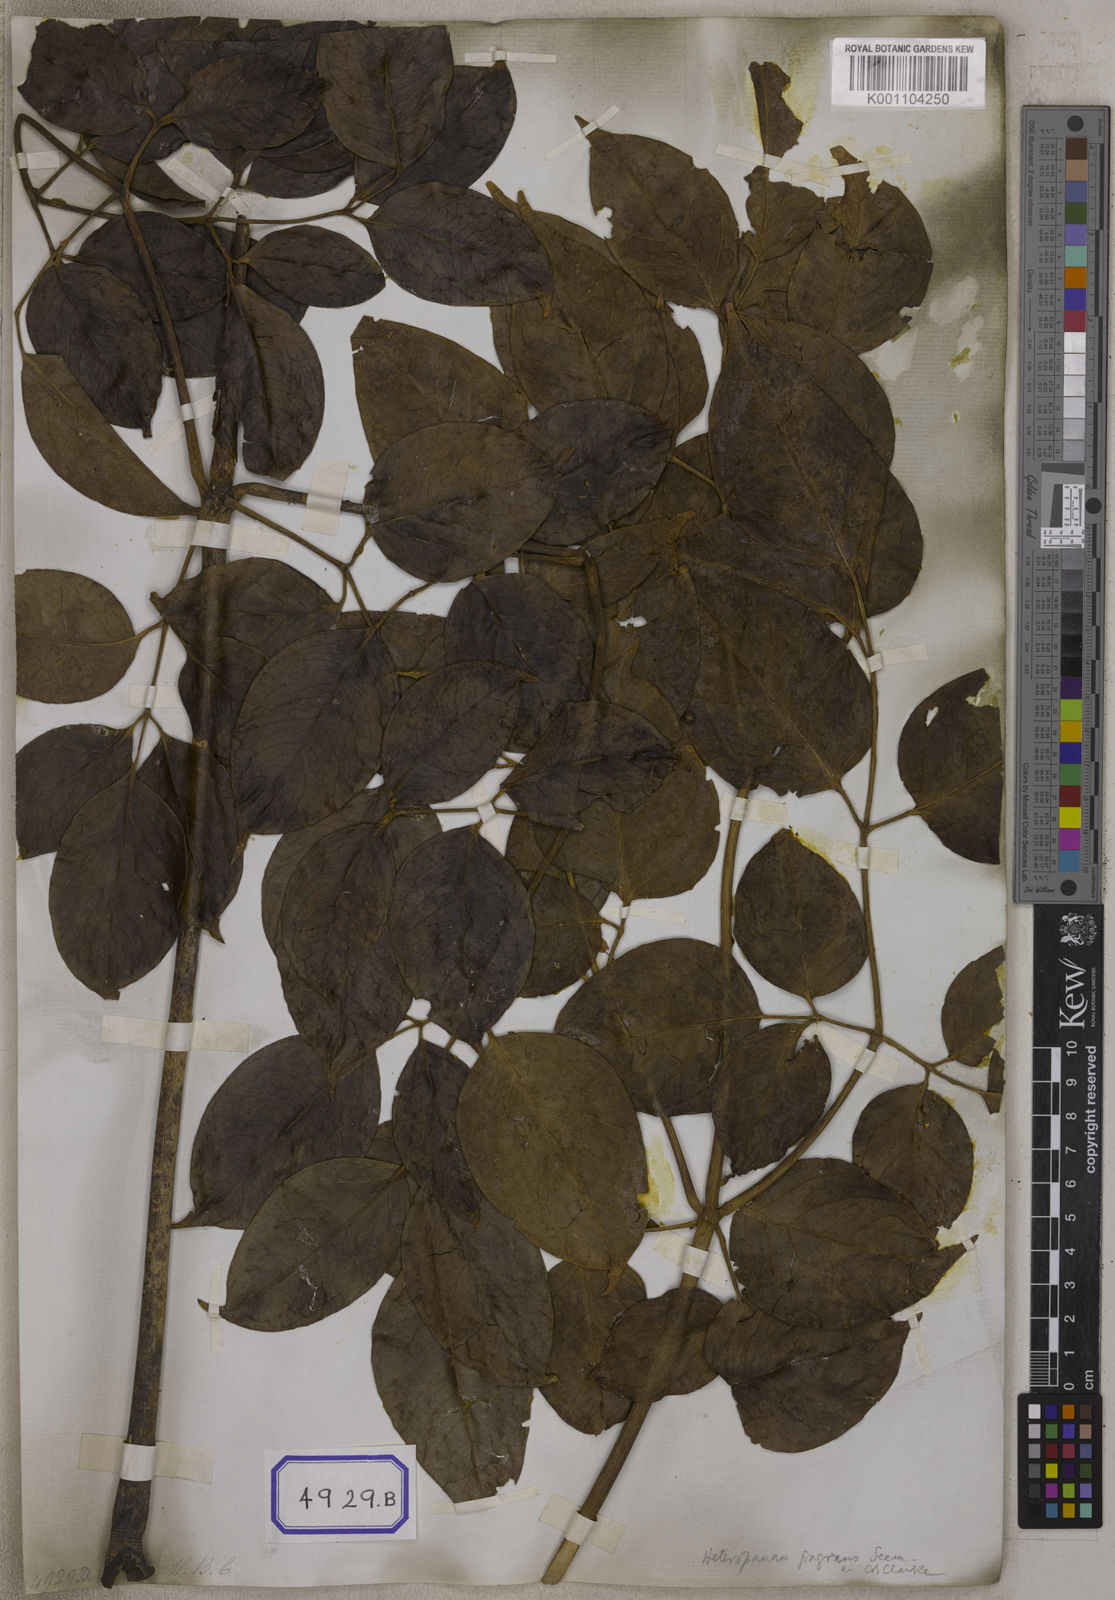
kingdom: Plantae
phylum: Tracheophyta
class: Magnoliopsida
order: Apiales
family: Araliaceae
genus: Heteropanax
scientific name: Heteropanax fragrans
